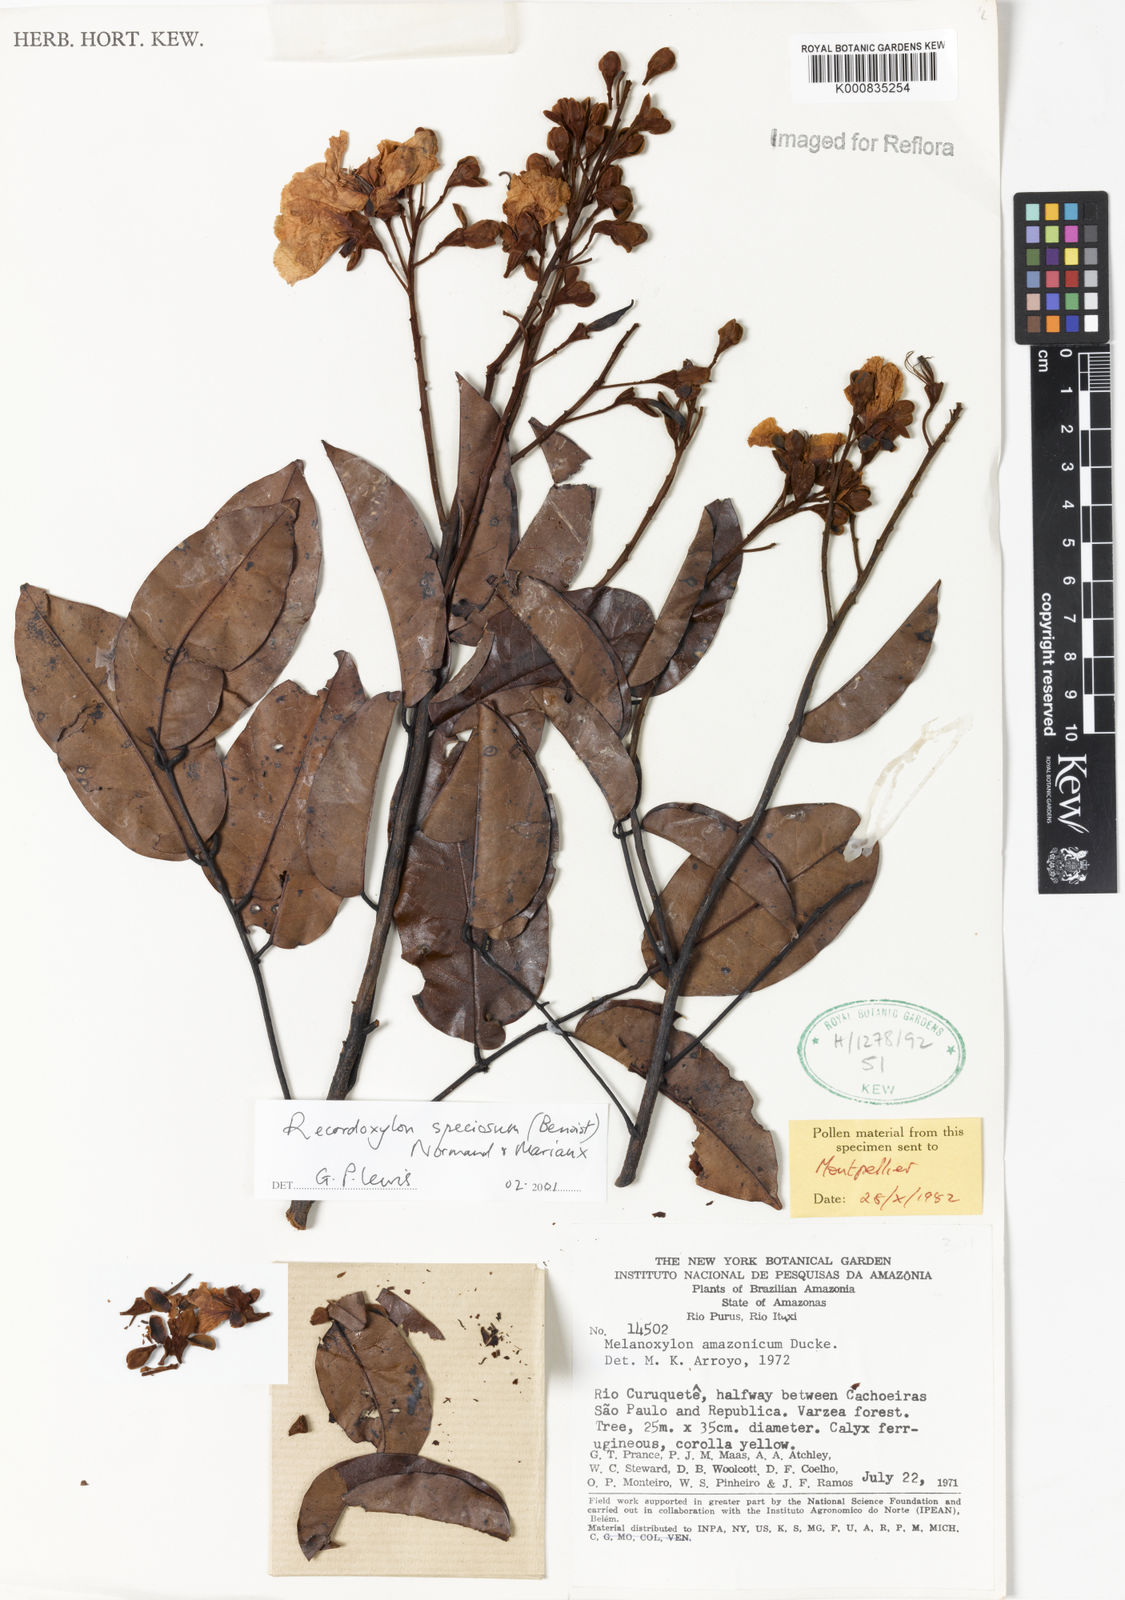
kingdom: Plantae
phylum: Tracheophyta
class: Magnoliopsida
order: Fabales
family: Fabaceae
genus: Recordoxylon
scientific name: Recordoxylon speciosum
